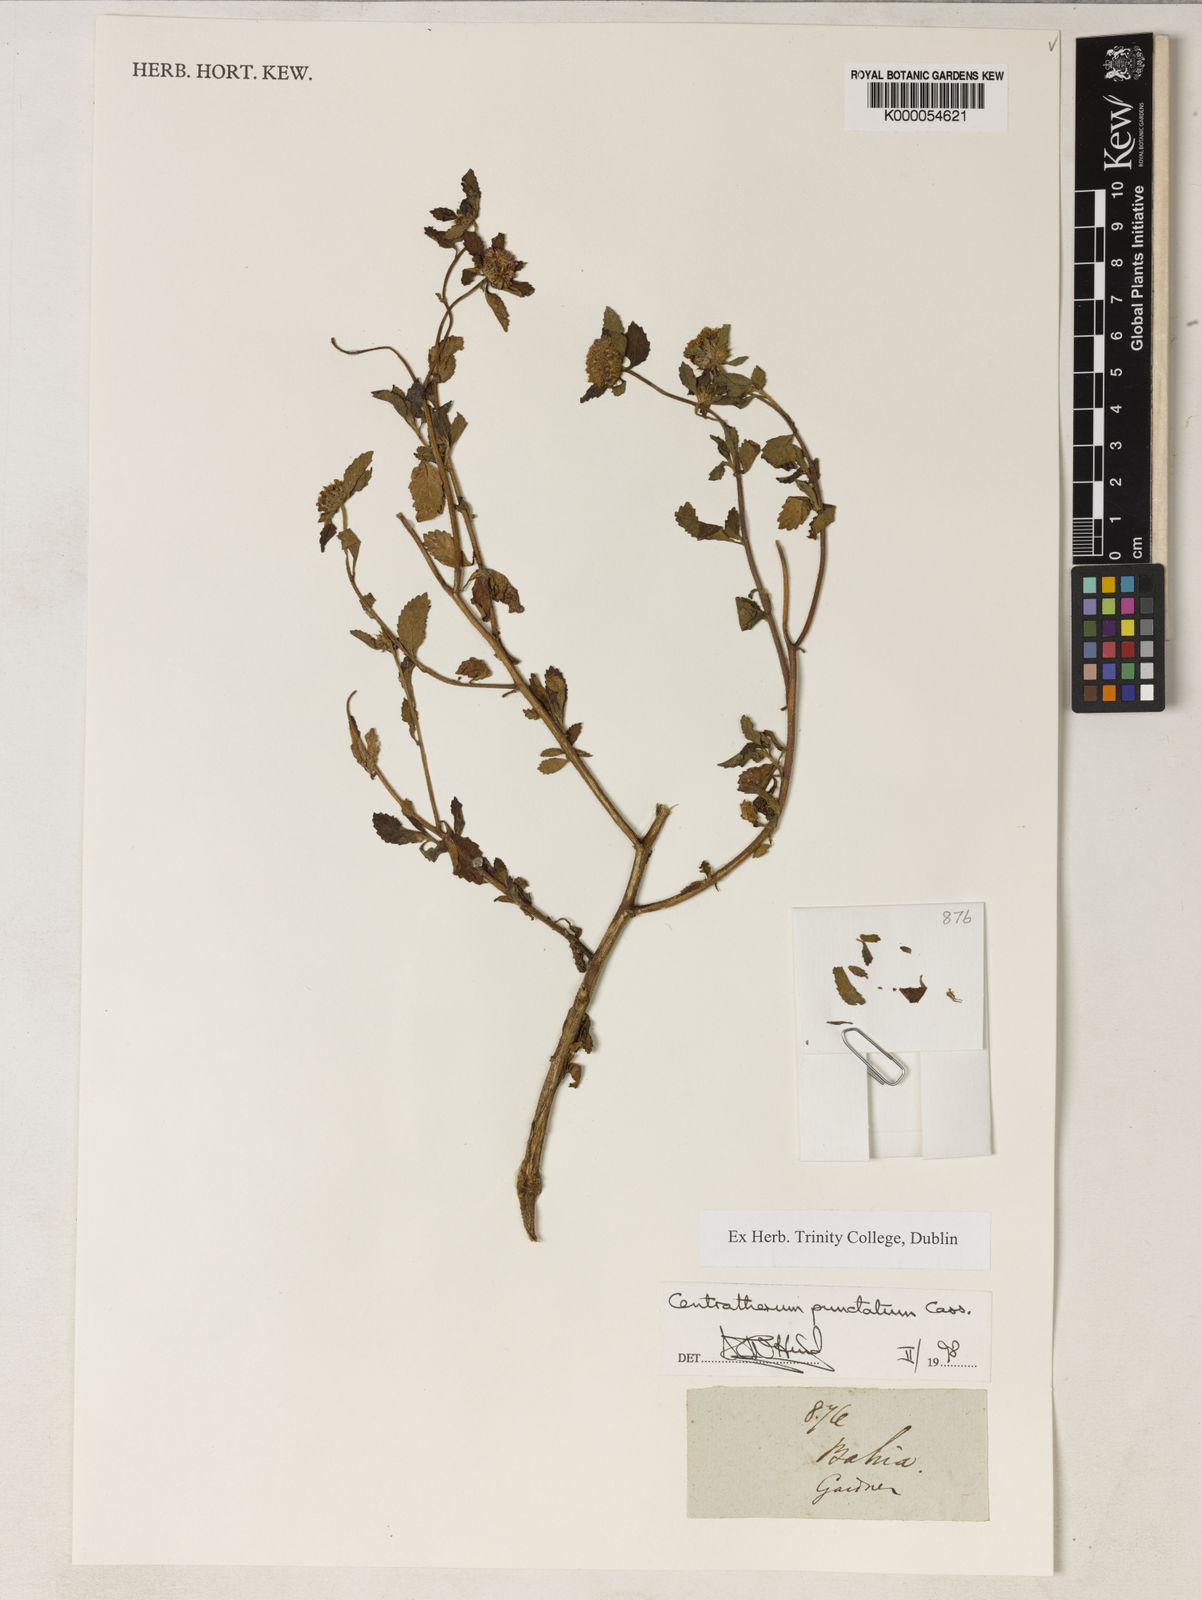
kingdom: Plantae
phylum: Tracheophyta
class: Magnoliopsida
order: Asterales
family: Asteraceae
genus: Centratherum
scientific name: Centratherum punctatum
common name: Larkdaisy
